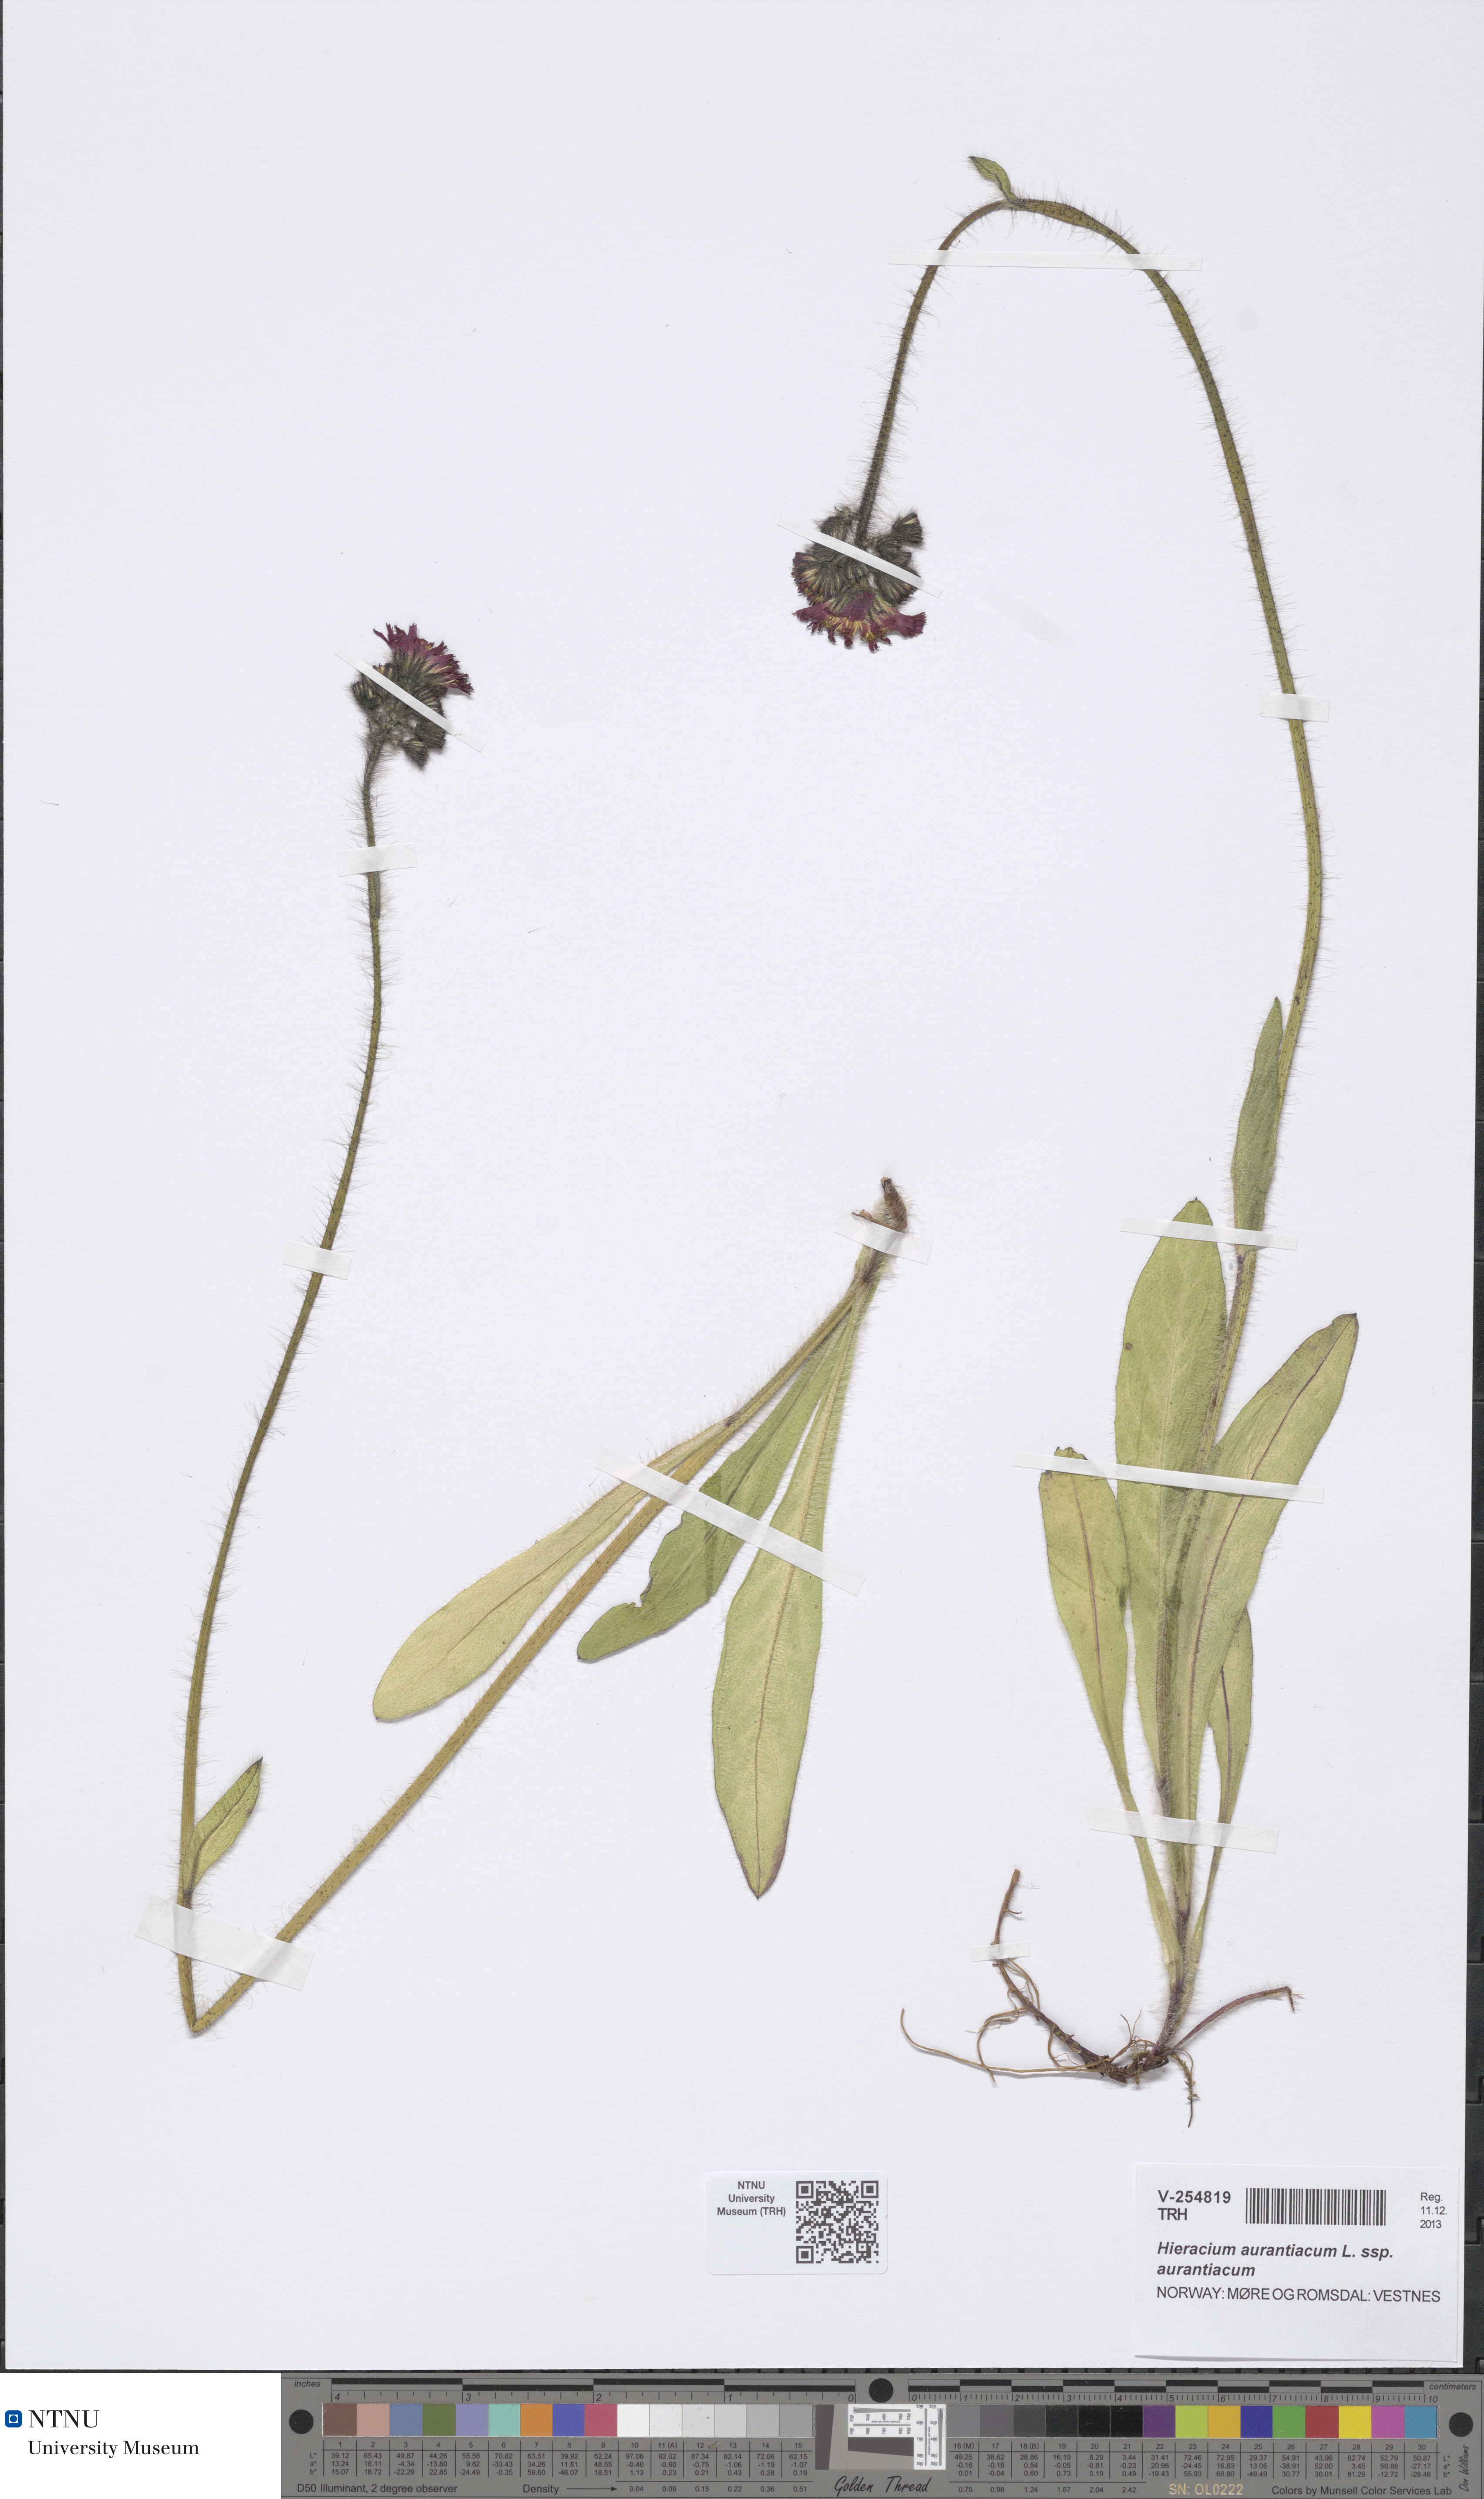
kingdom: Plantae
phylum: Tracheophyta
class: Magnoliopsida
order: Asterales
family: Asteraceae
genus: Pilosella
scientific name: Pilosella aurantiaca
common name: Fox-and-cubs
